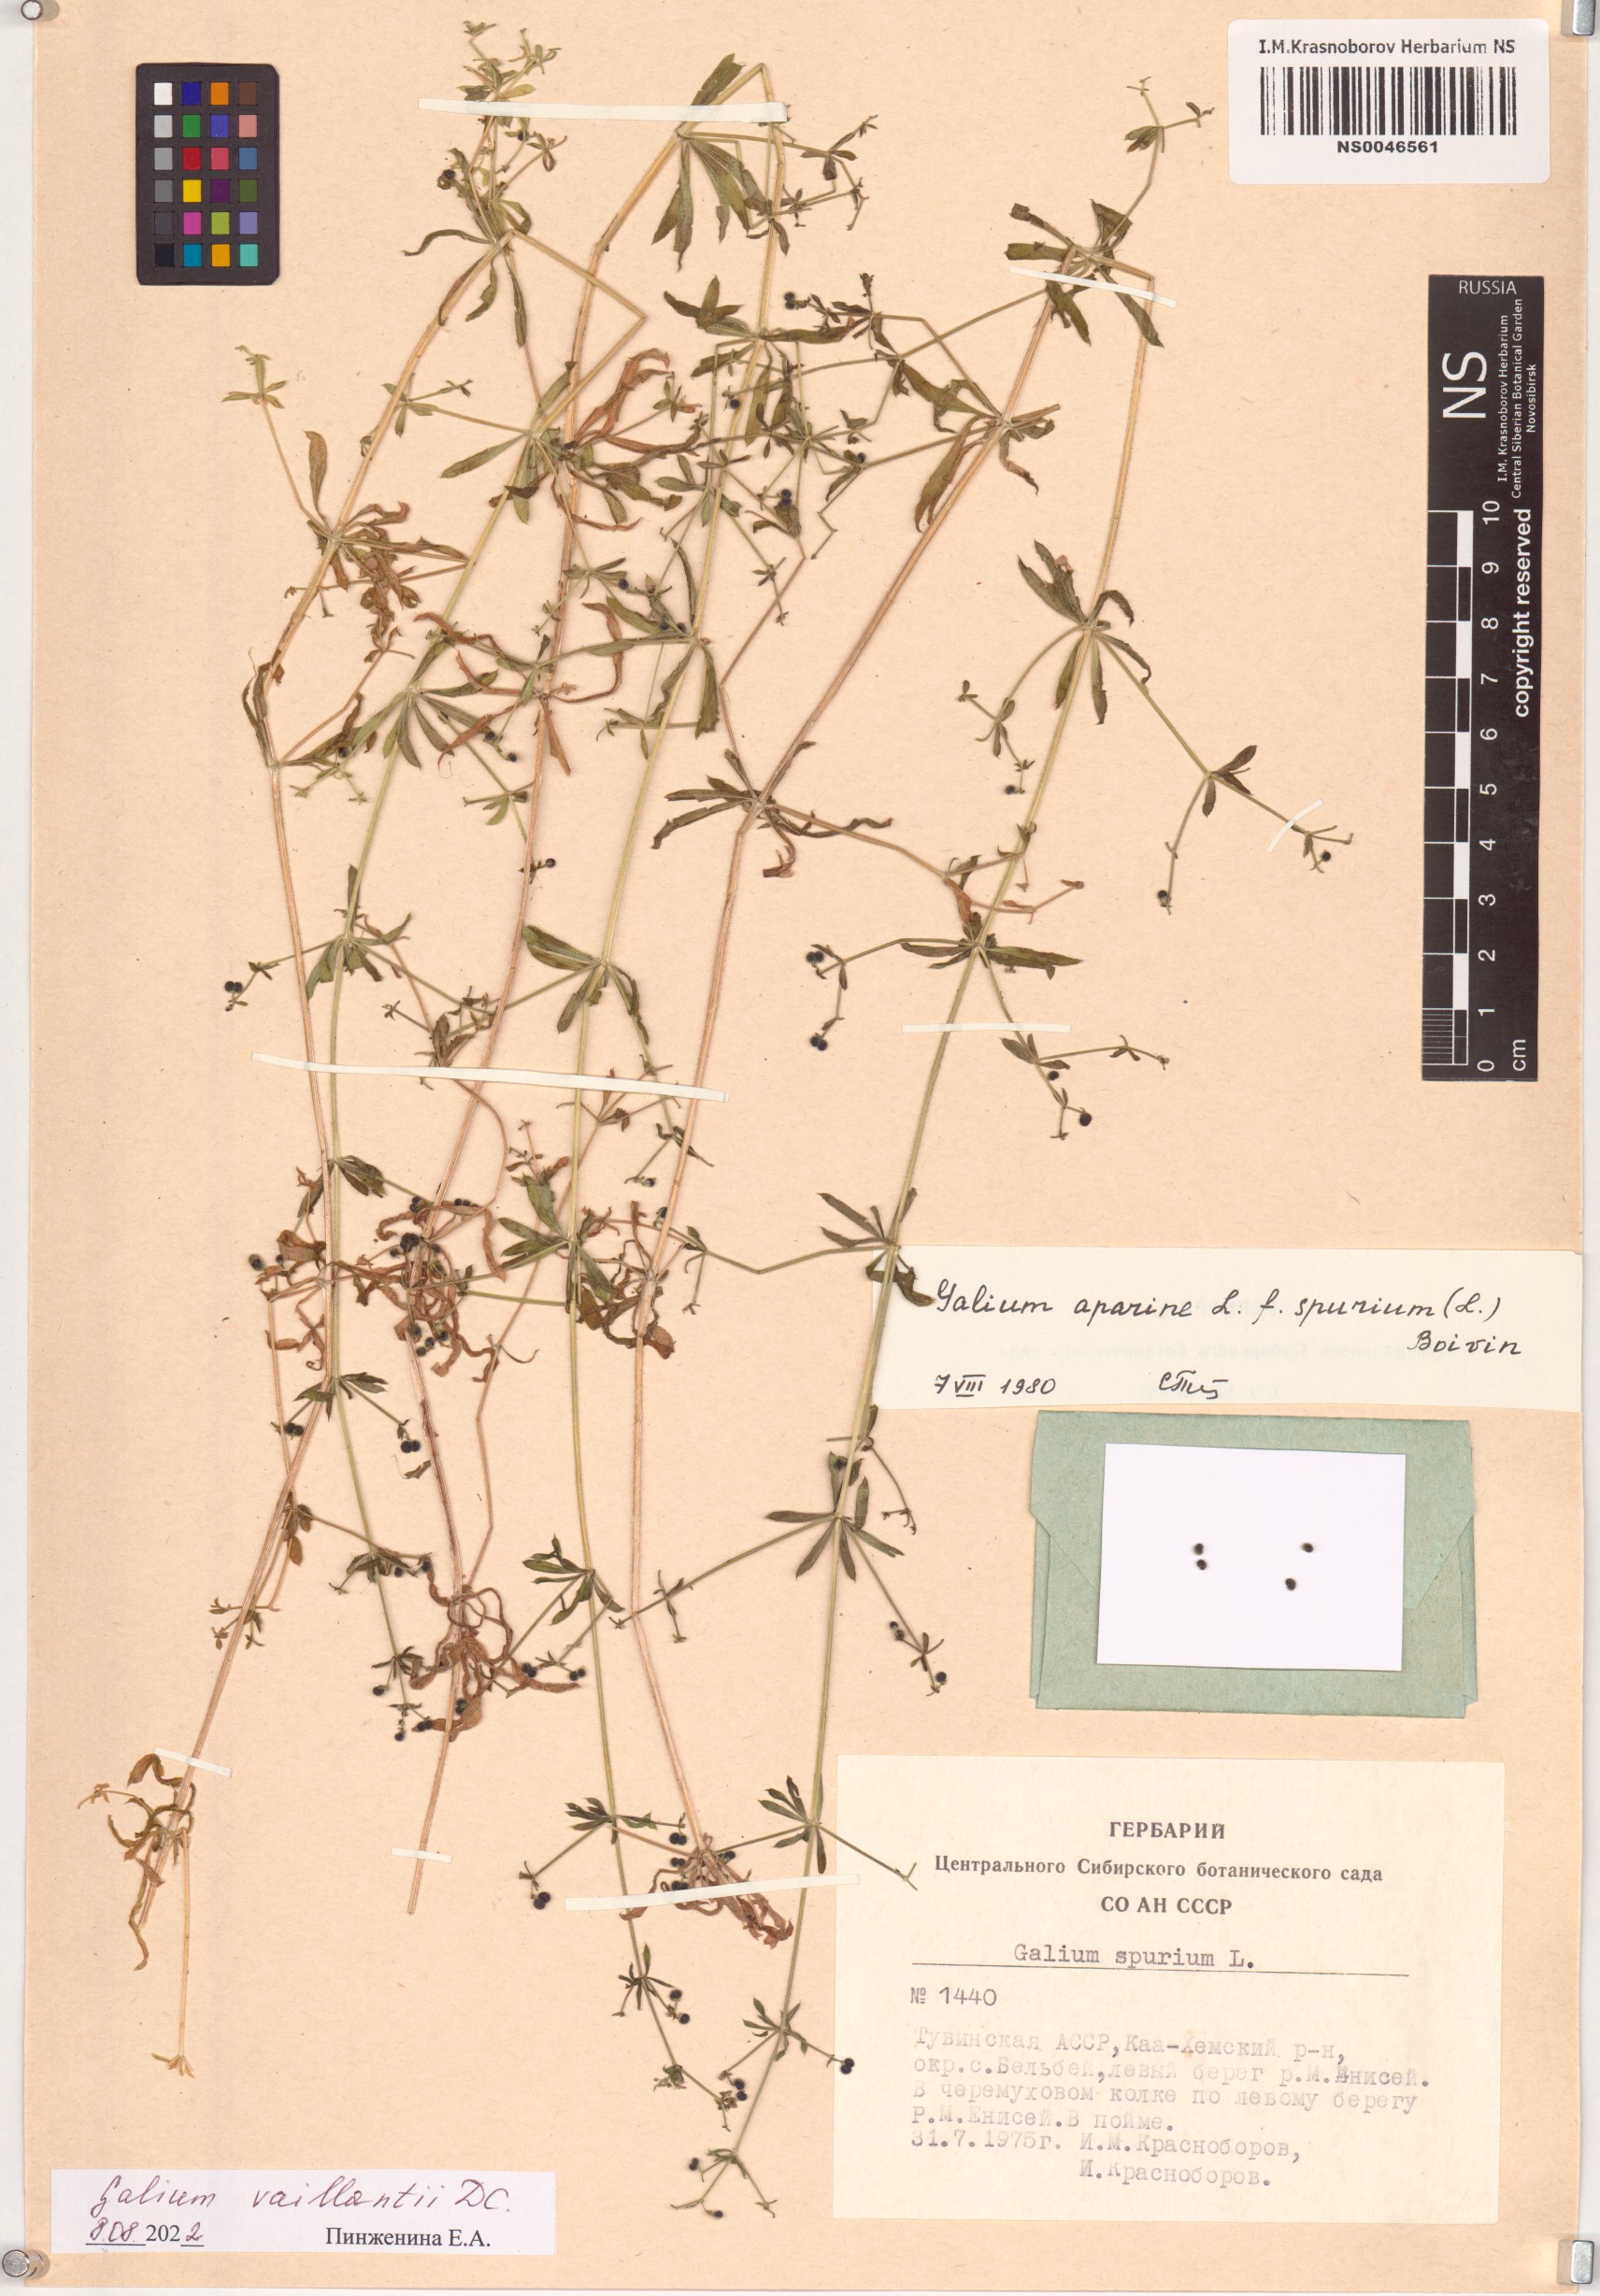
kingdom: Plantae
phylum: Tracheophyta
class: Magnoliopsida
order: Gentianales
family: Rubiaceae
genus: Galium
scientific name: Galium spurium
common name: False cleavers
